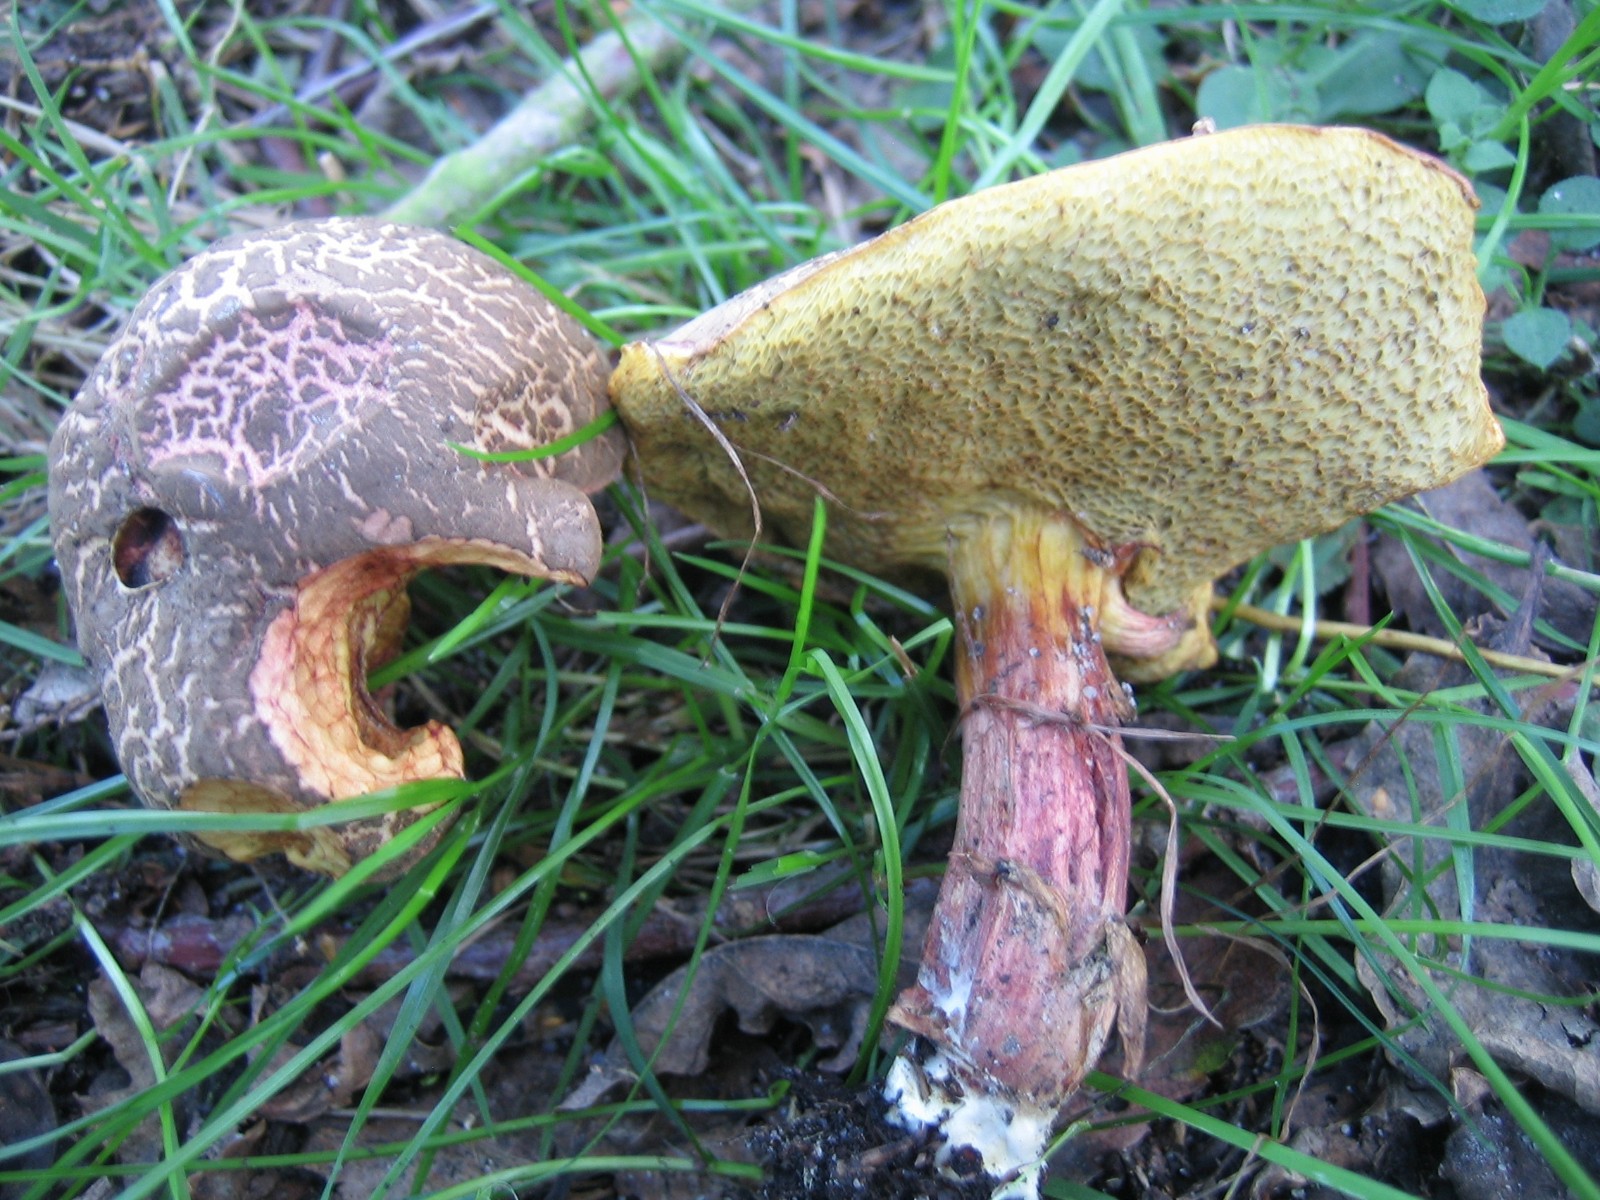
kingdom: Fungi
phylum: Basidiomycota
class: Agaricomycetes
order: Boletales
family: Boletaceae
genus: Xerocomellus
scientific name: Xerocomellus chrysenteron
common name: rødsprukken rørhat
